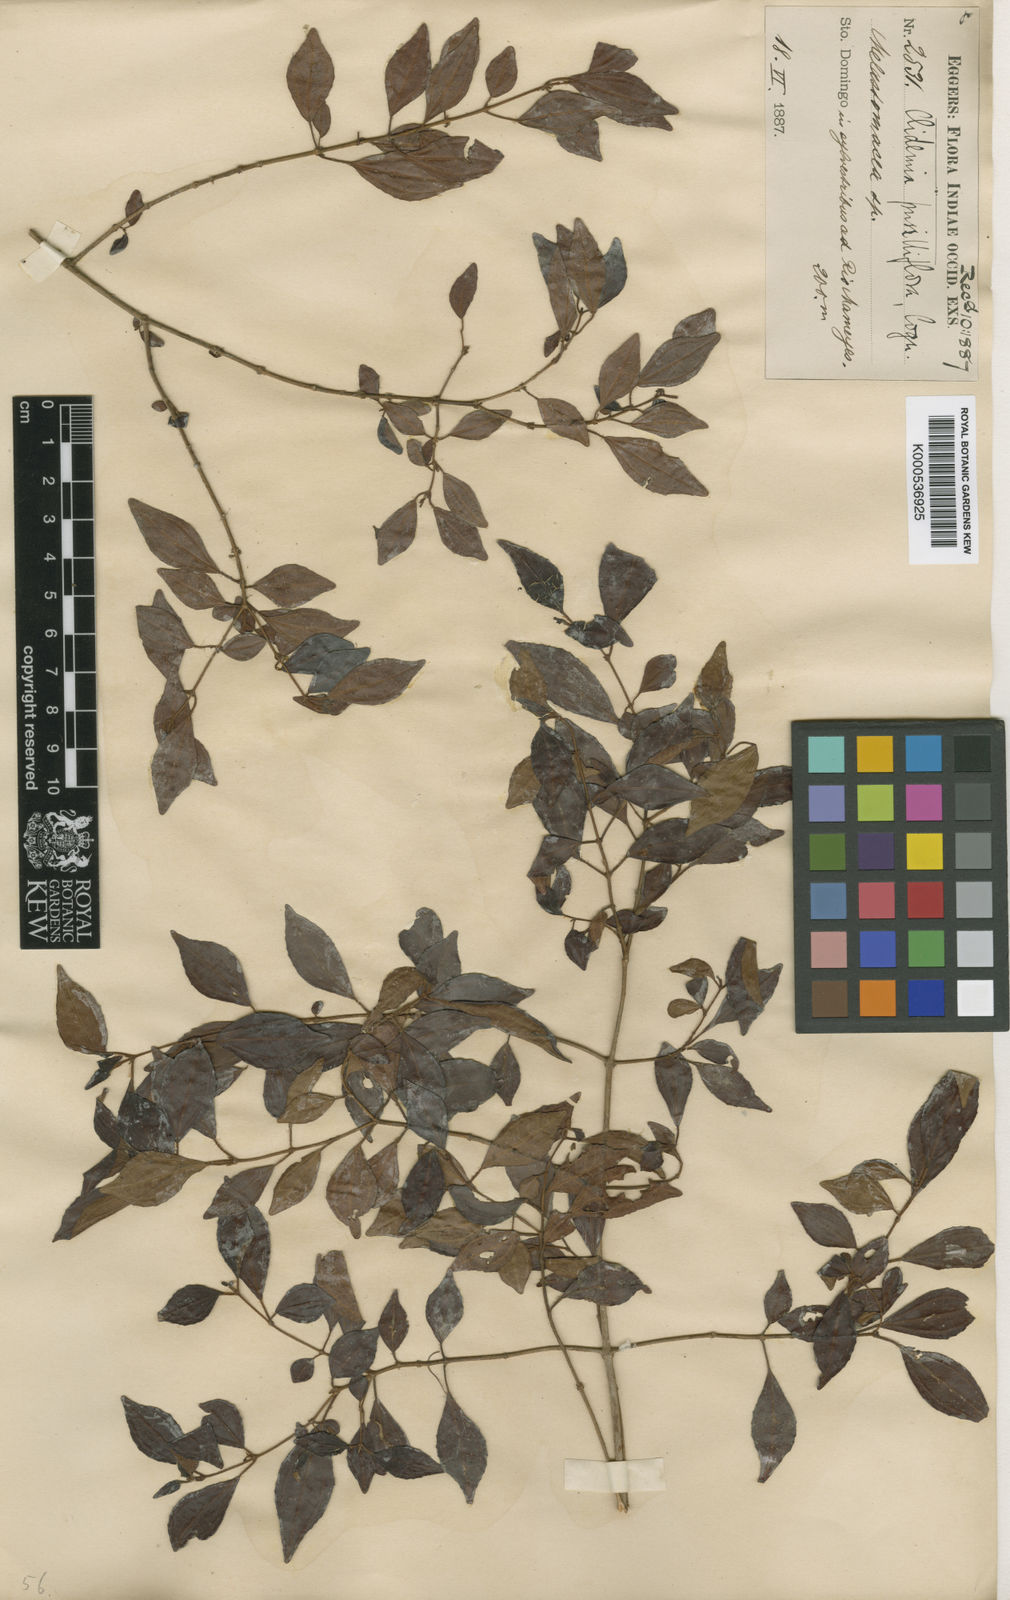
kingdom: Plantae
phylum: Tracheophyta
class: Magnoliopsida
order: Myrtales
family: Melastomataceae
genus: Miconia
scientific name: Miconia portoricensis
